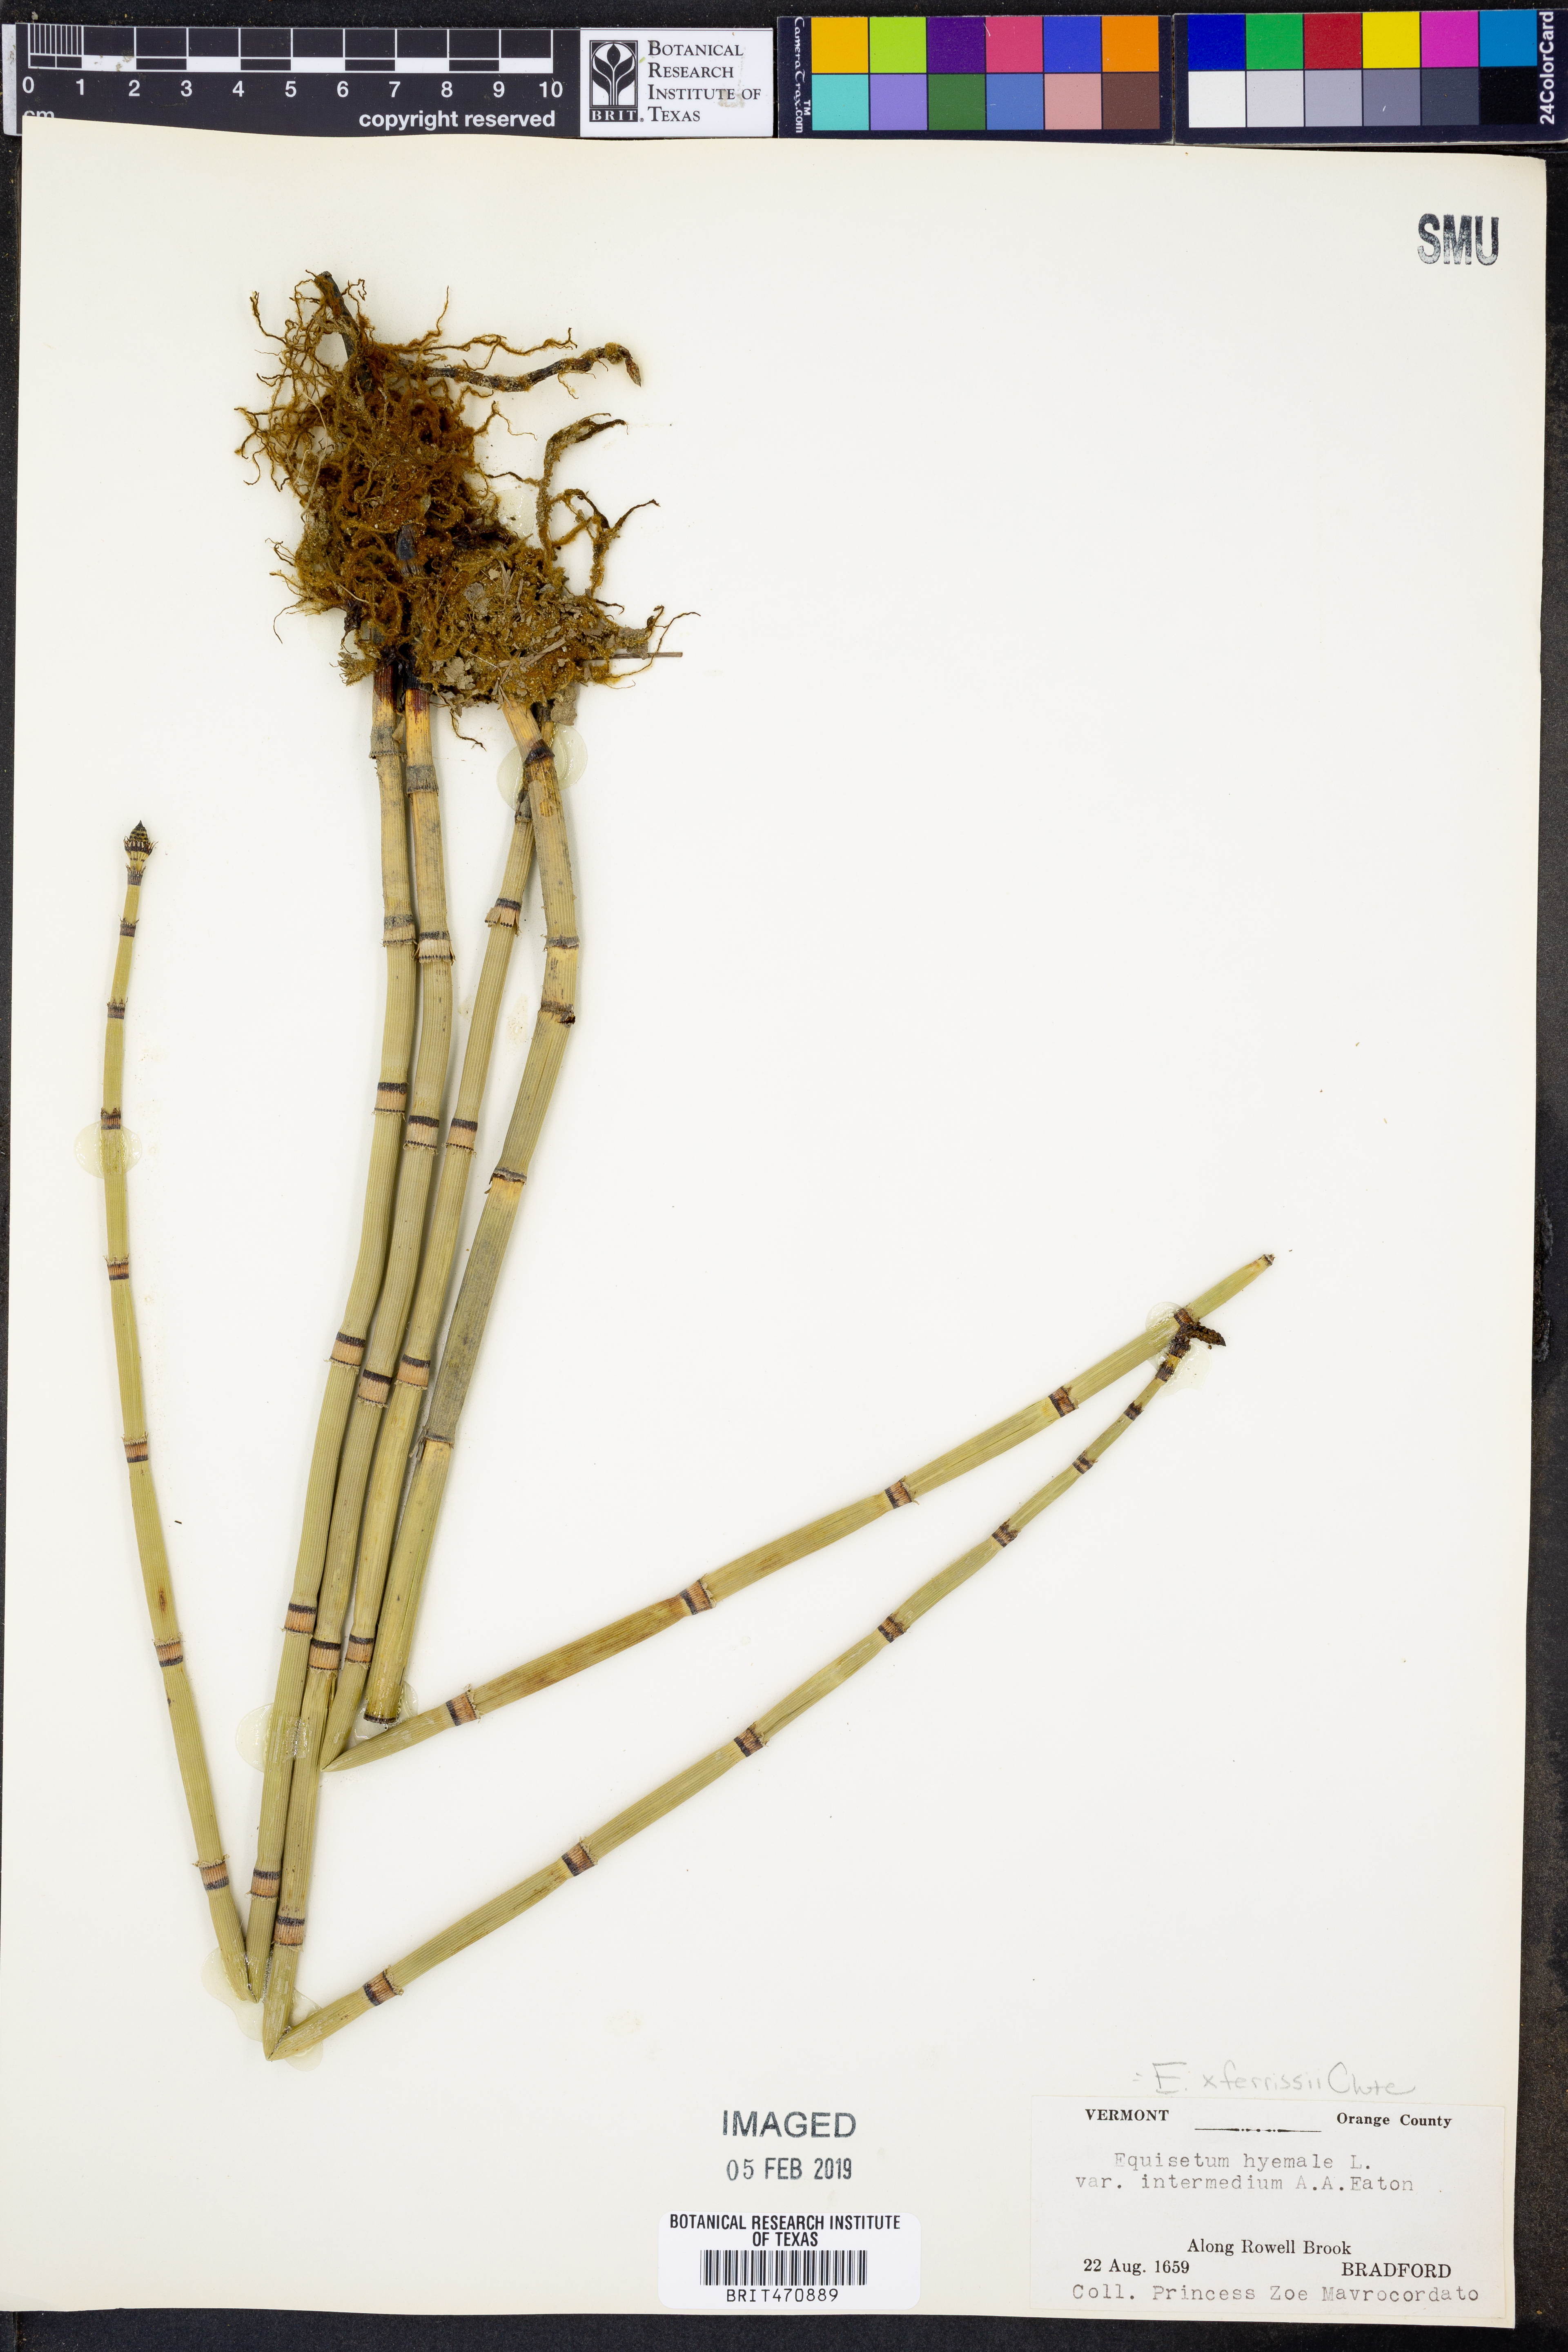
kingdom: Plantae
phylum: Tracheophyta
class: Polypodiopsida
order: Equisetales
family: Equisetaceae
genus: Equisetum
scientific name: Equisetum ferrissii
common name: Ferriss' horsetail
